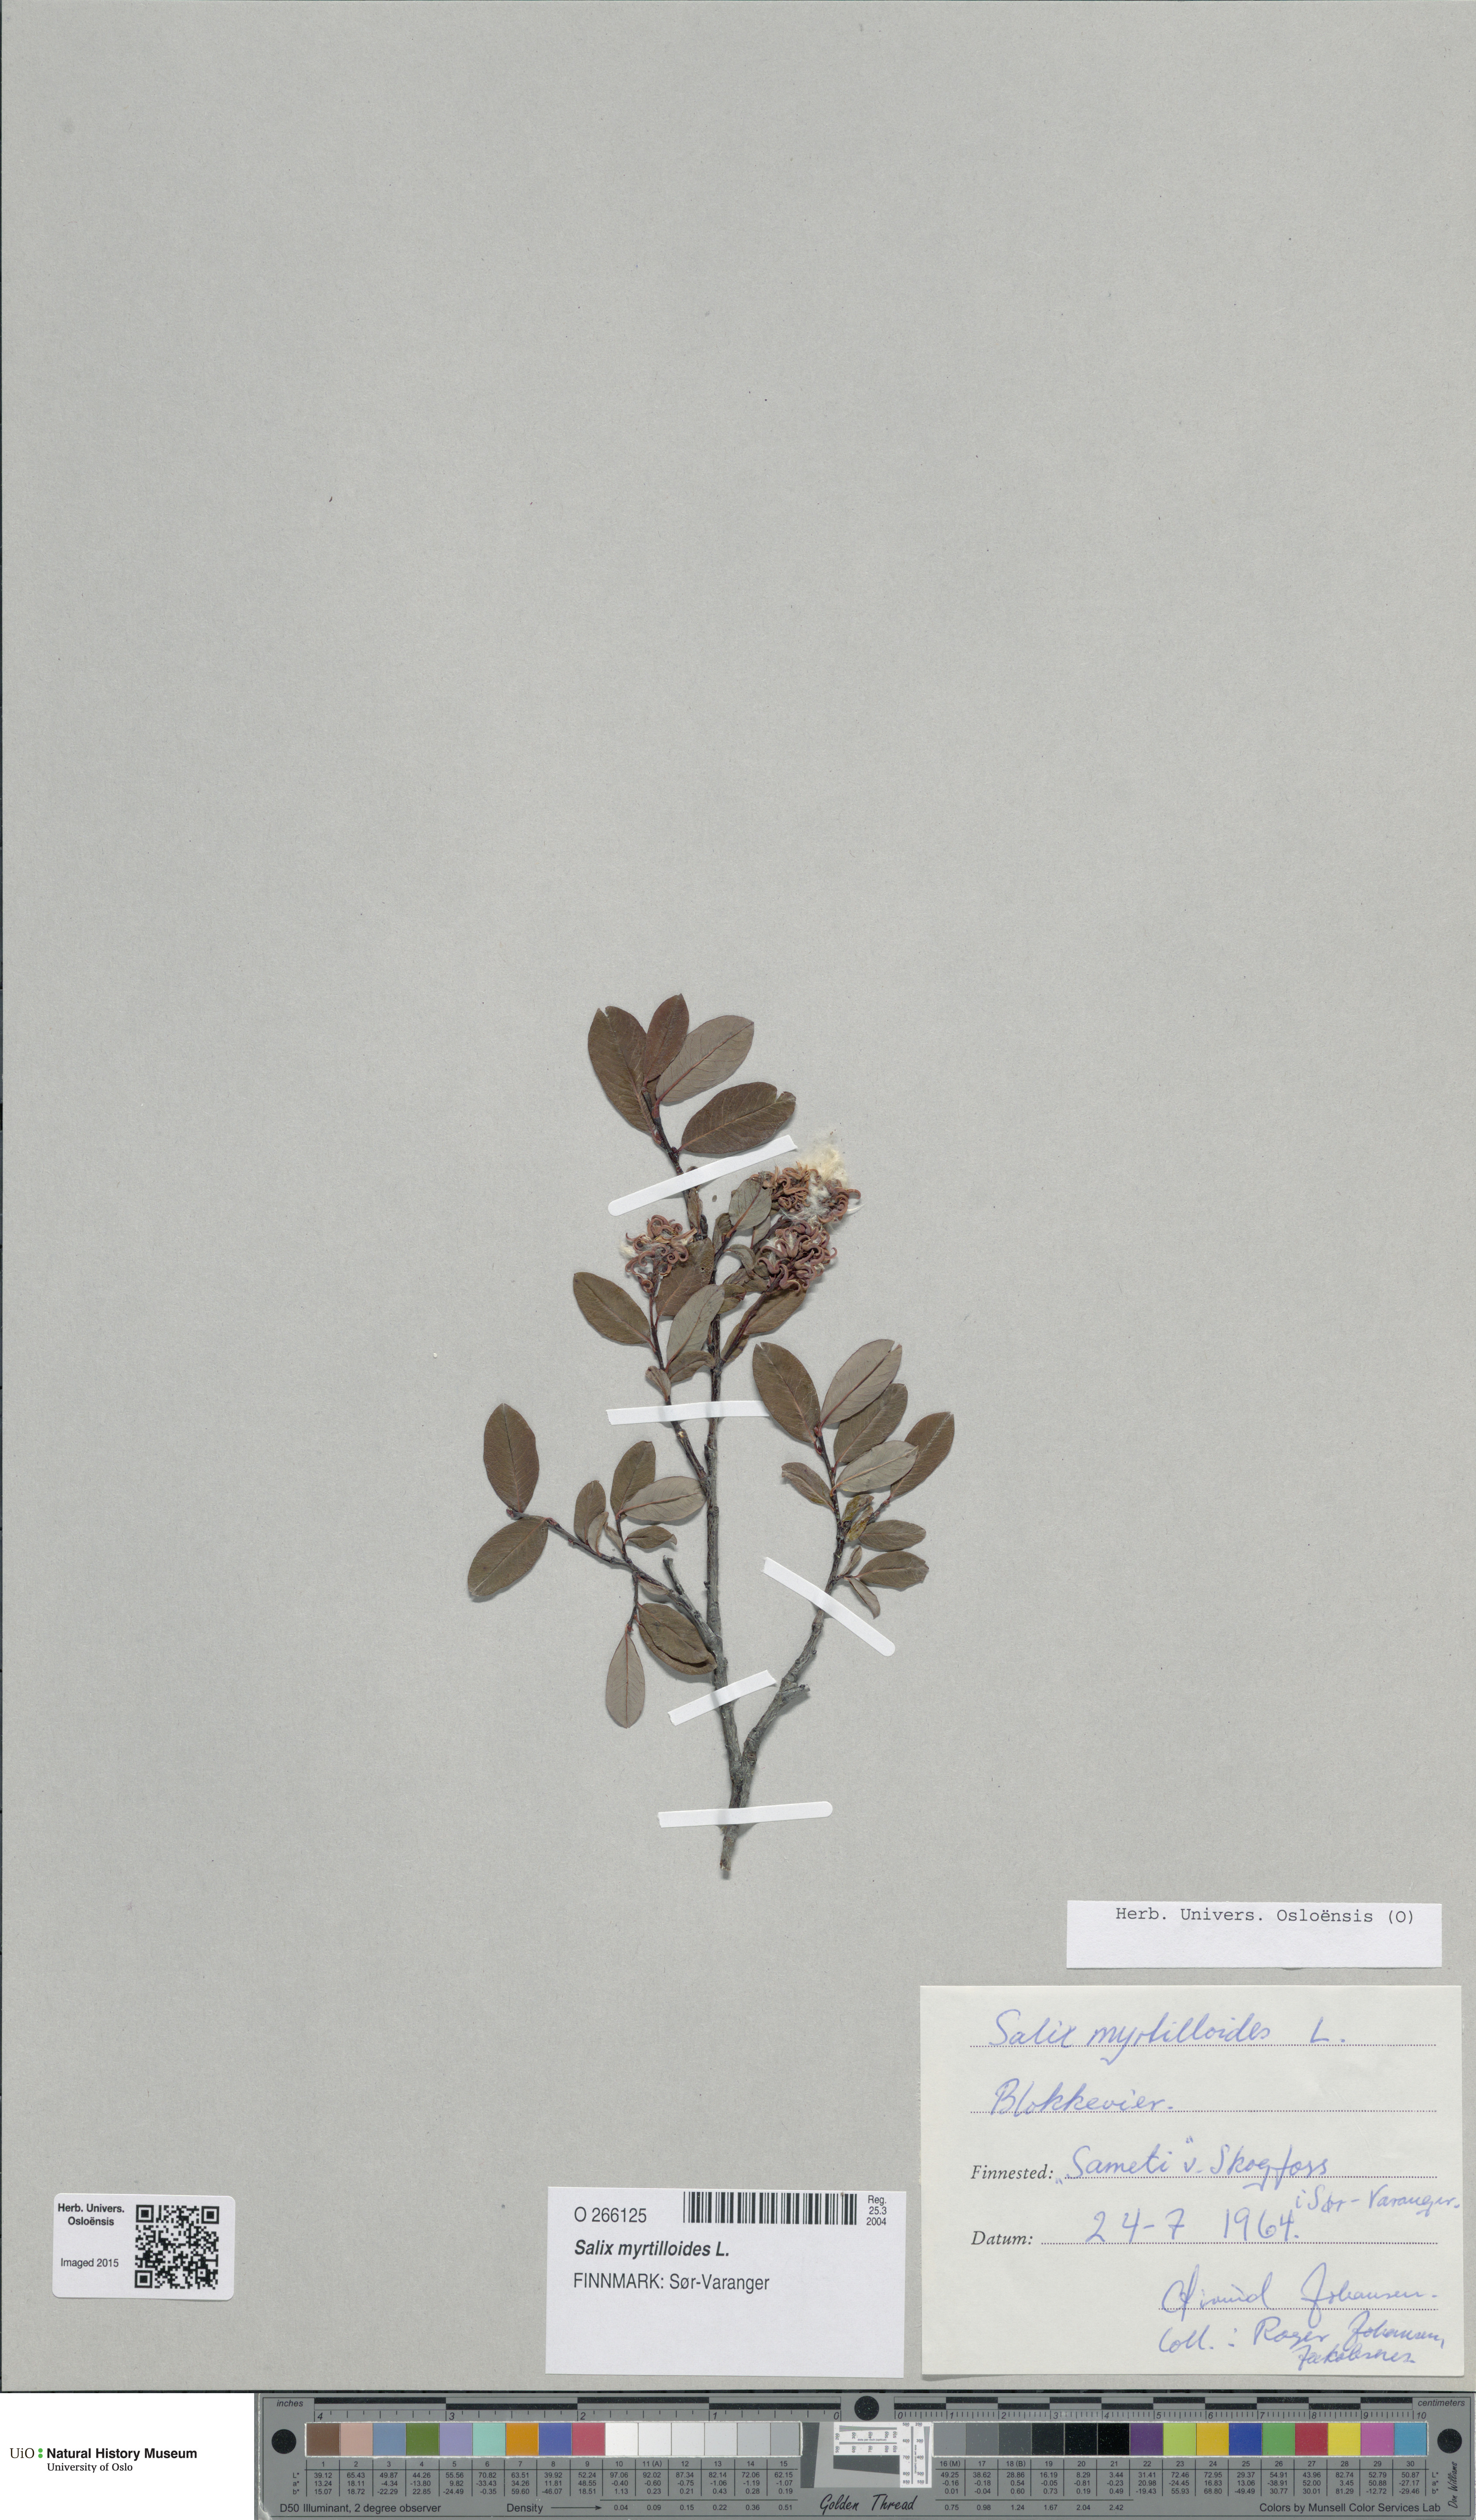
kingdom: Plantae
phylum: Tracheophyta
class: Magnoliopsida
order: Malpighiales
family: Salicaceae
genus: Salix
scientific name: Salix myrtilloides
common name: Myrtle-leaved willow
